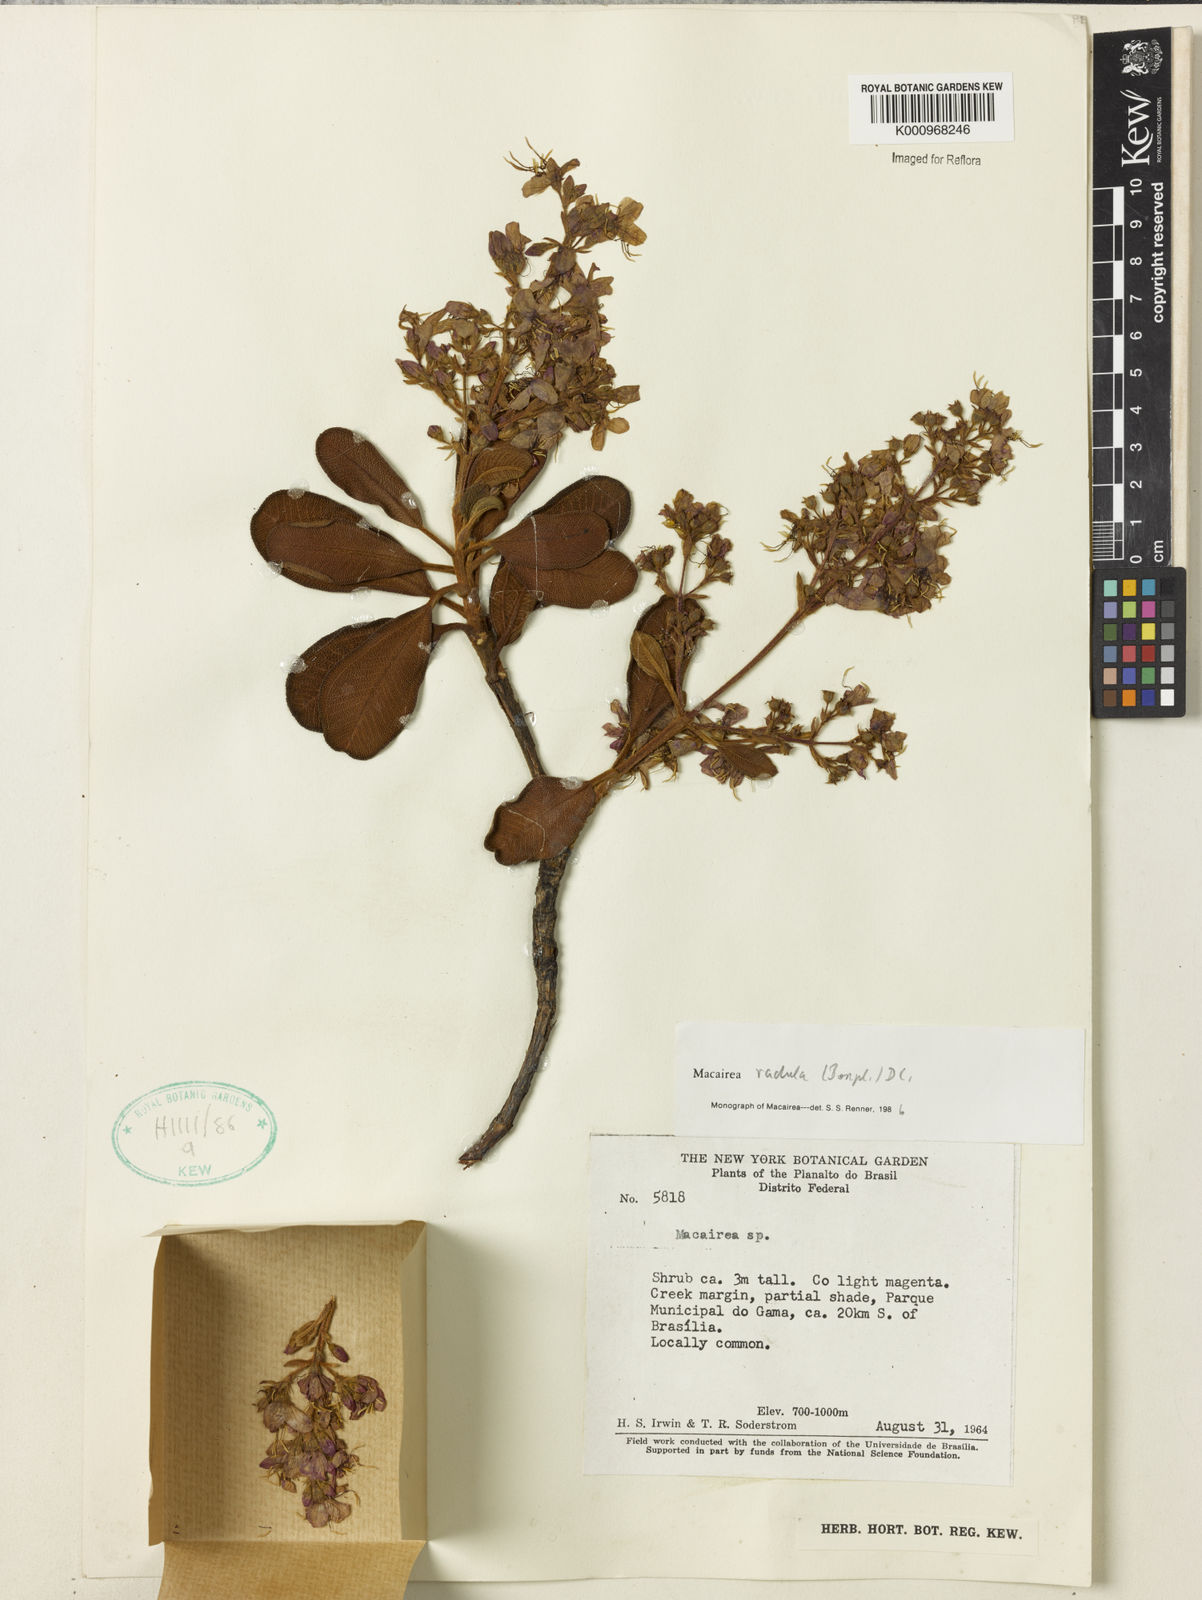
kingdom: Plantae
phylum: Tracheophyta
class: Magnoliopsida
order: Myrtales
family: Melastomataceae
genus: Macairea
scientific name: Macairea radula
